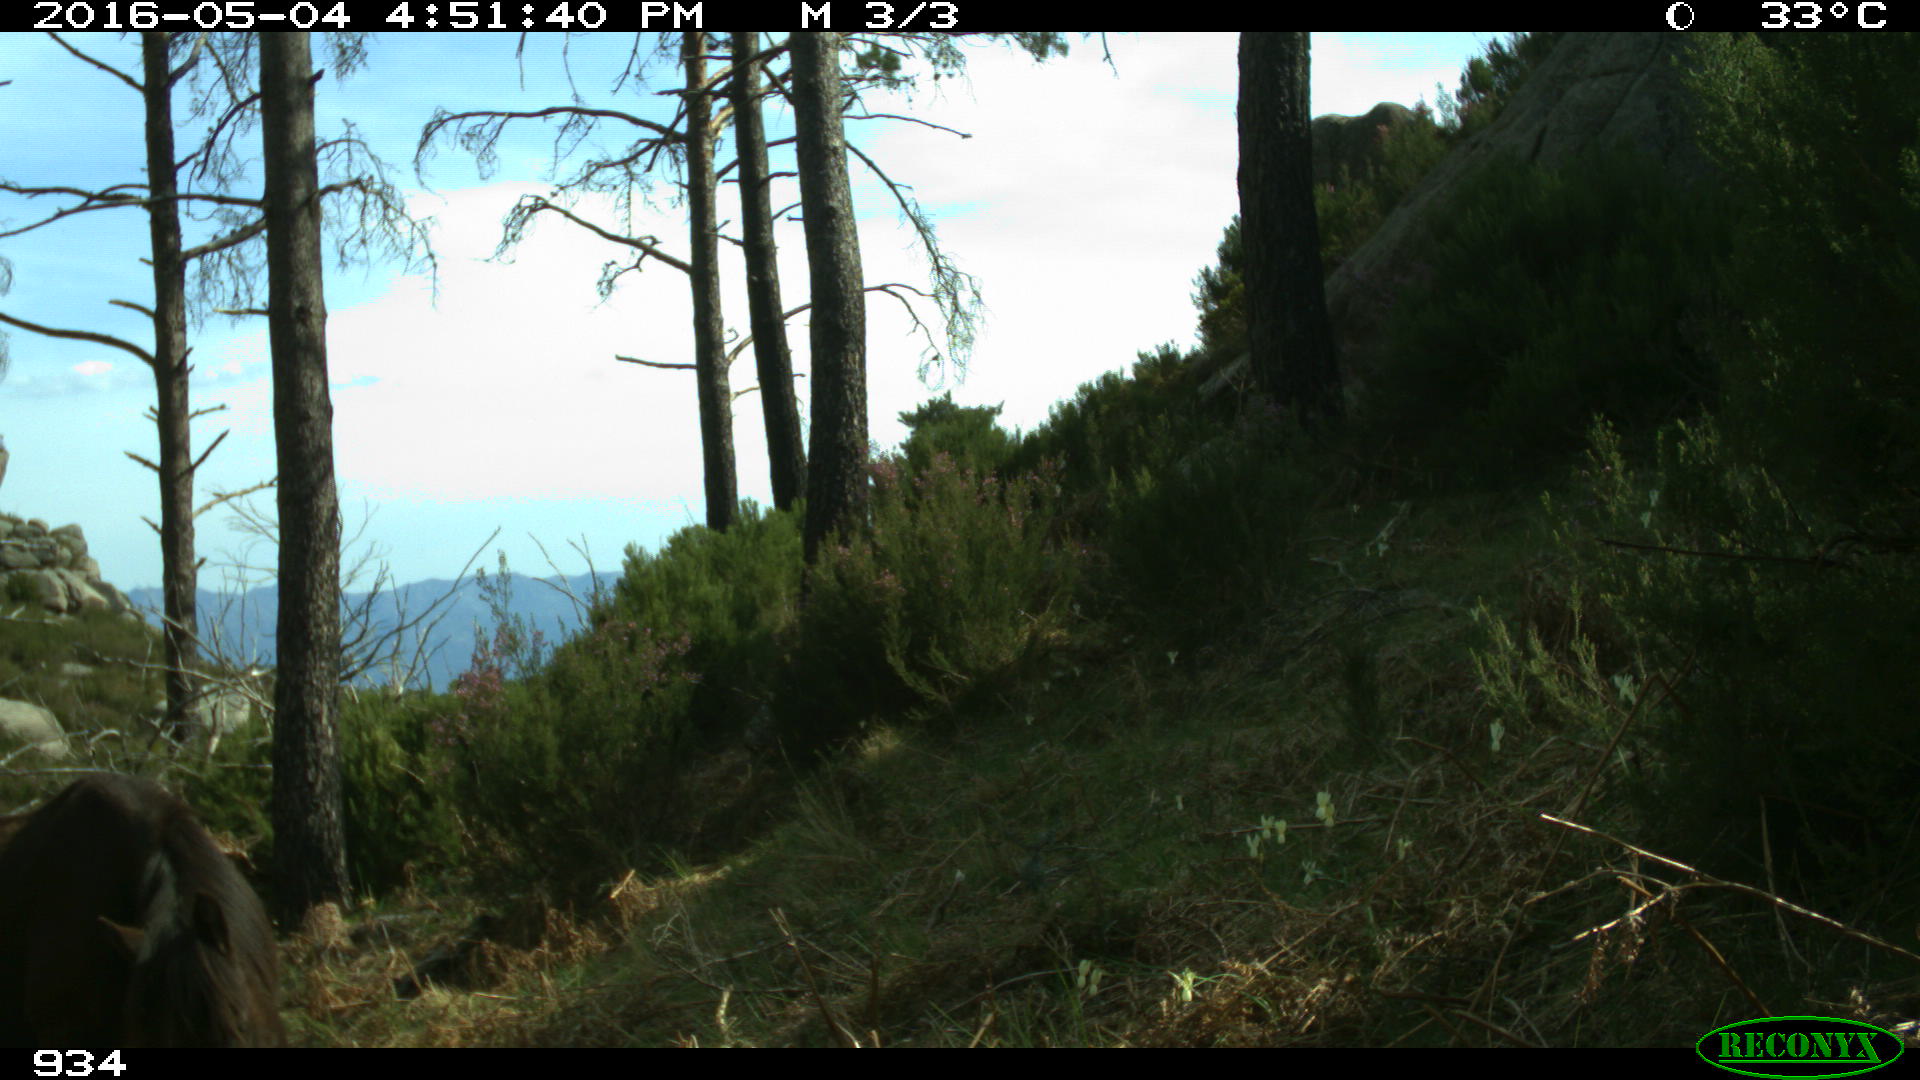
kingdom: Animalia
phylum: Chordata
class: Mammalia
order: Perissodactyla
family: Equidae
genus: Equus
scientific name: Equus caballus
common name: Horse
